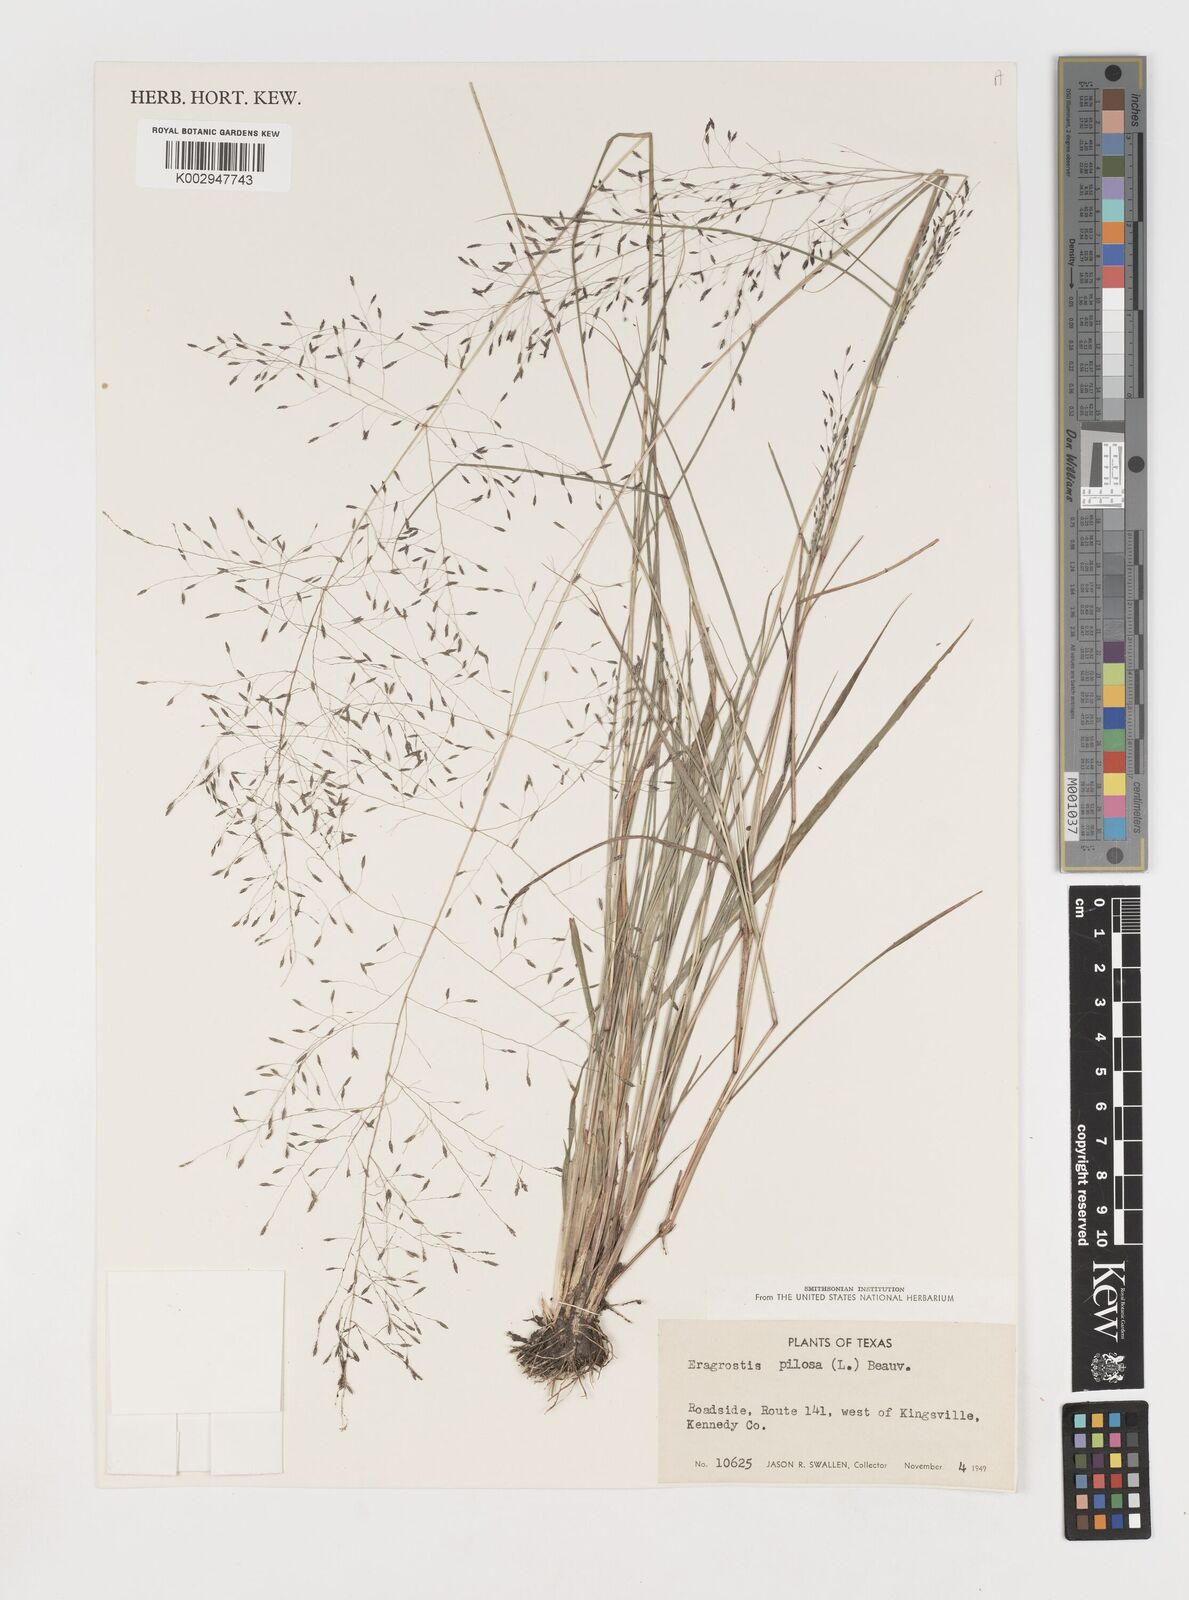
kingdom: Plantae
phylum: Tracheophyta
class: Liliopsida
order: Poales
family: Poaceae
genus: Eragrostis
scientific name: Eragrostis pilosa
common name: Indian lovegrass
